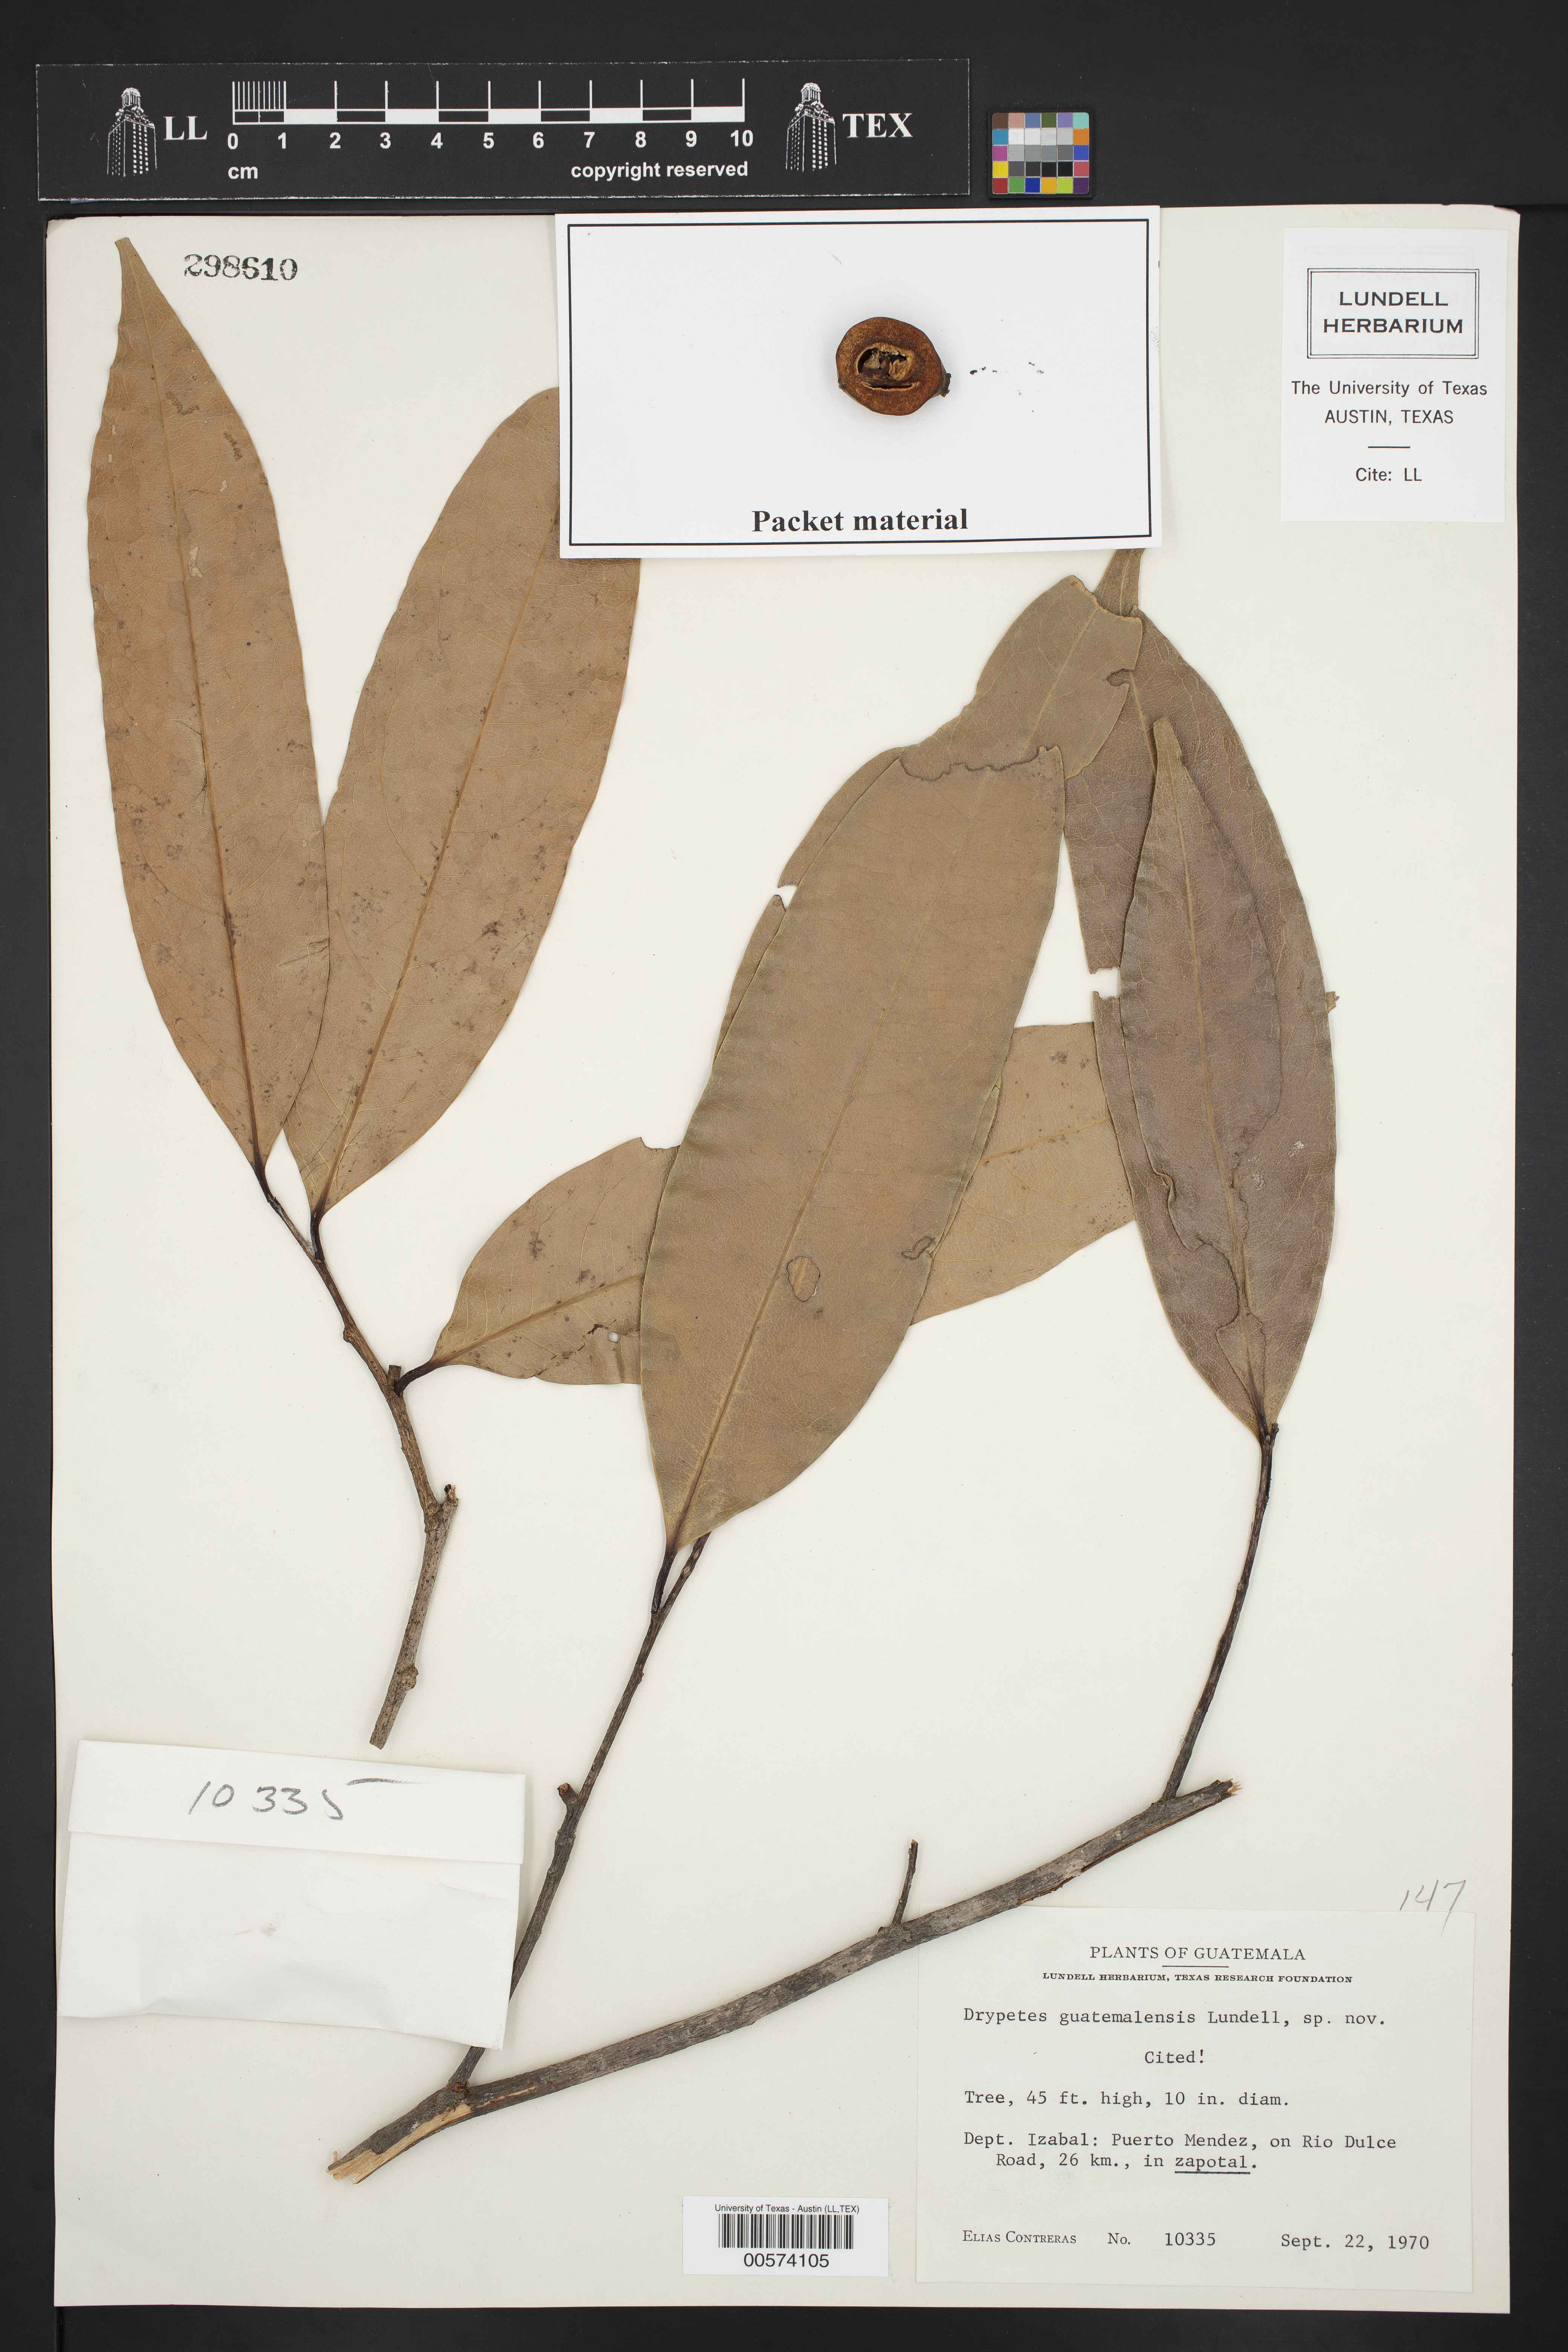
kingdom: Plantae
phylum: Tracheophyta
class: Magnoliopsida
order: Malpighiales
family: Putranjivaceae
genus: Drypetes
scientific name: Drypetes guatemalensis
